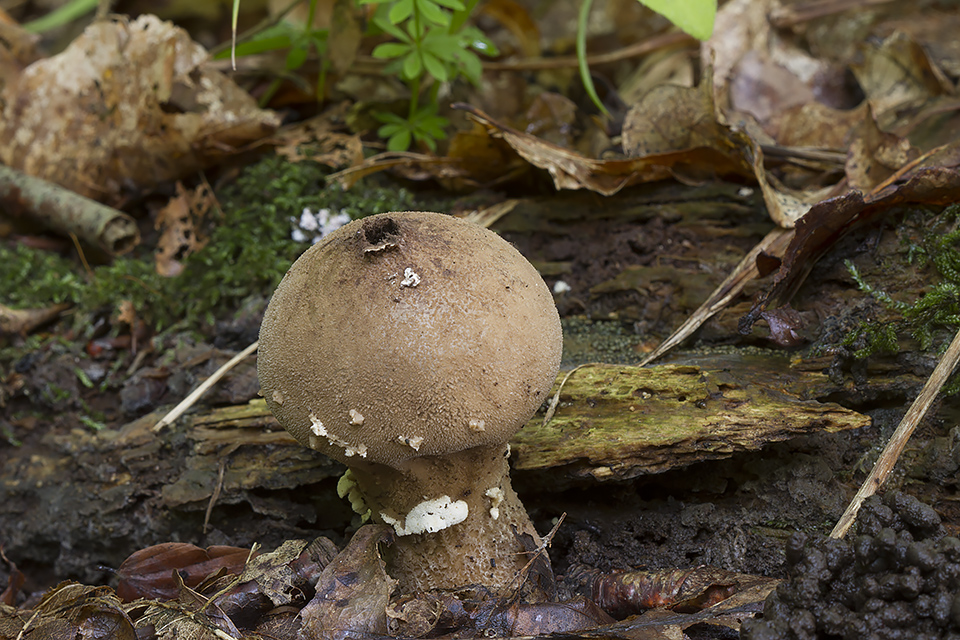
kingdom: Fungi
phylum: Basidiomycota
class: Agaricomycetes
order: Agaricales
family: Lycoperdaceae
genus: Lycoperdon
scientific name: Lycoperdon mammiforme
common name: rosa støvbold
